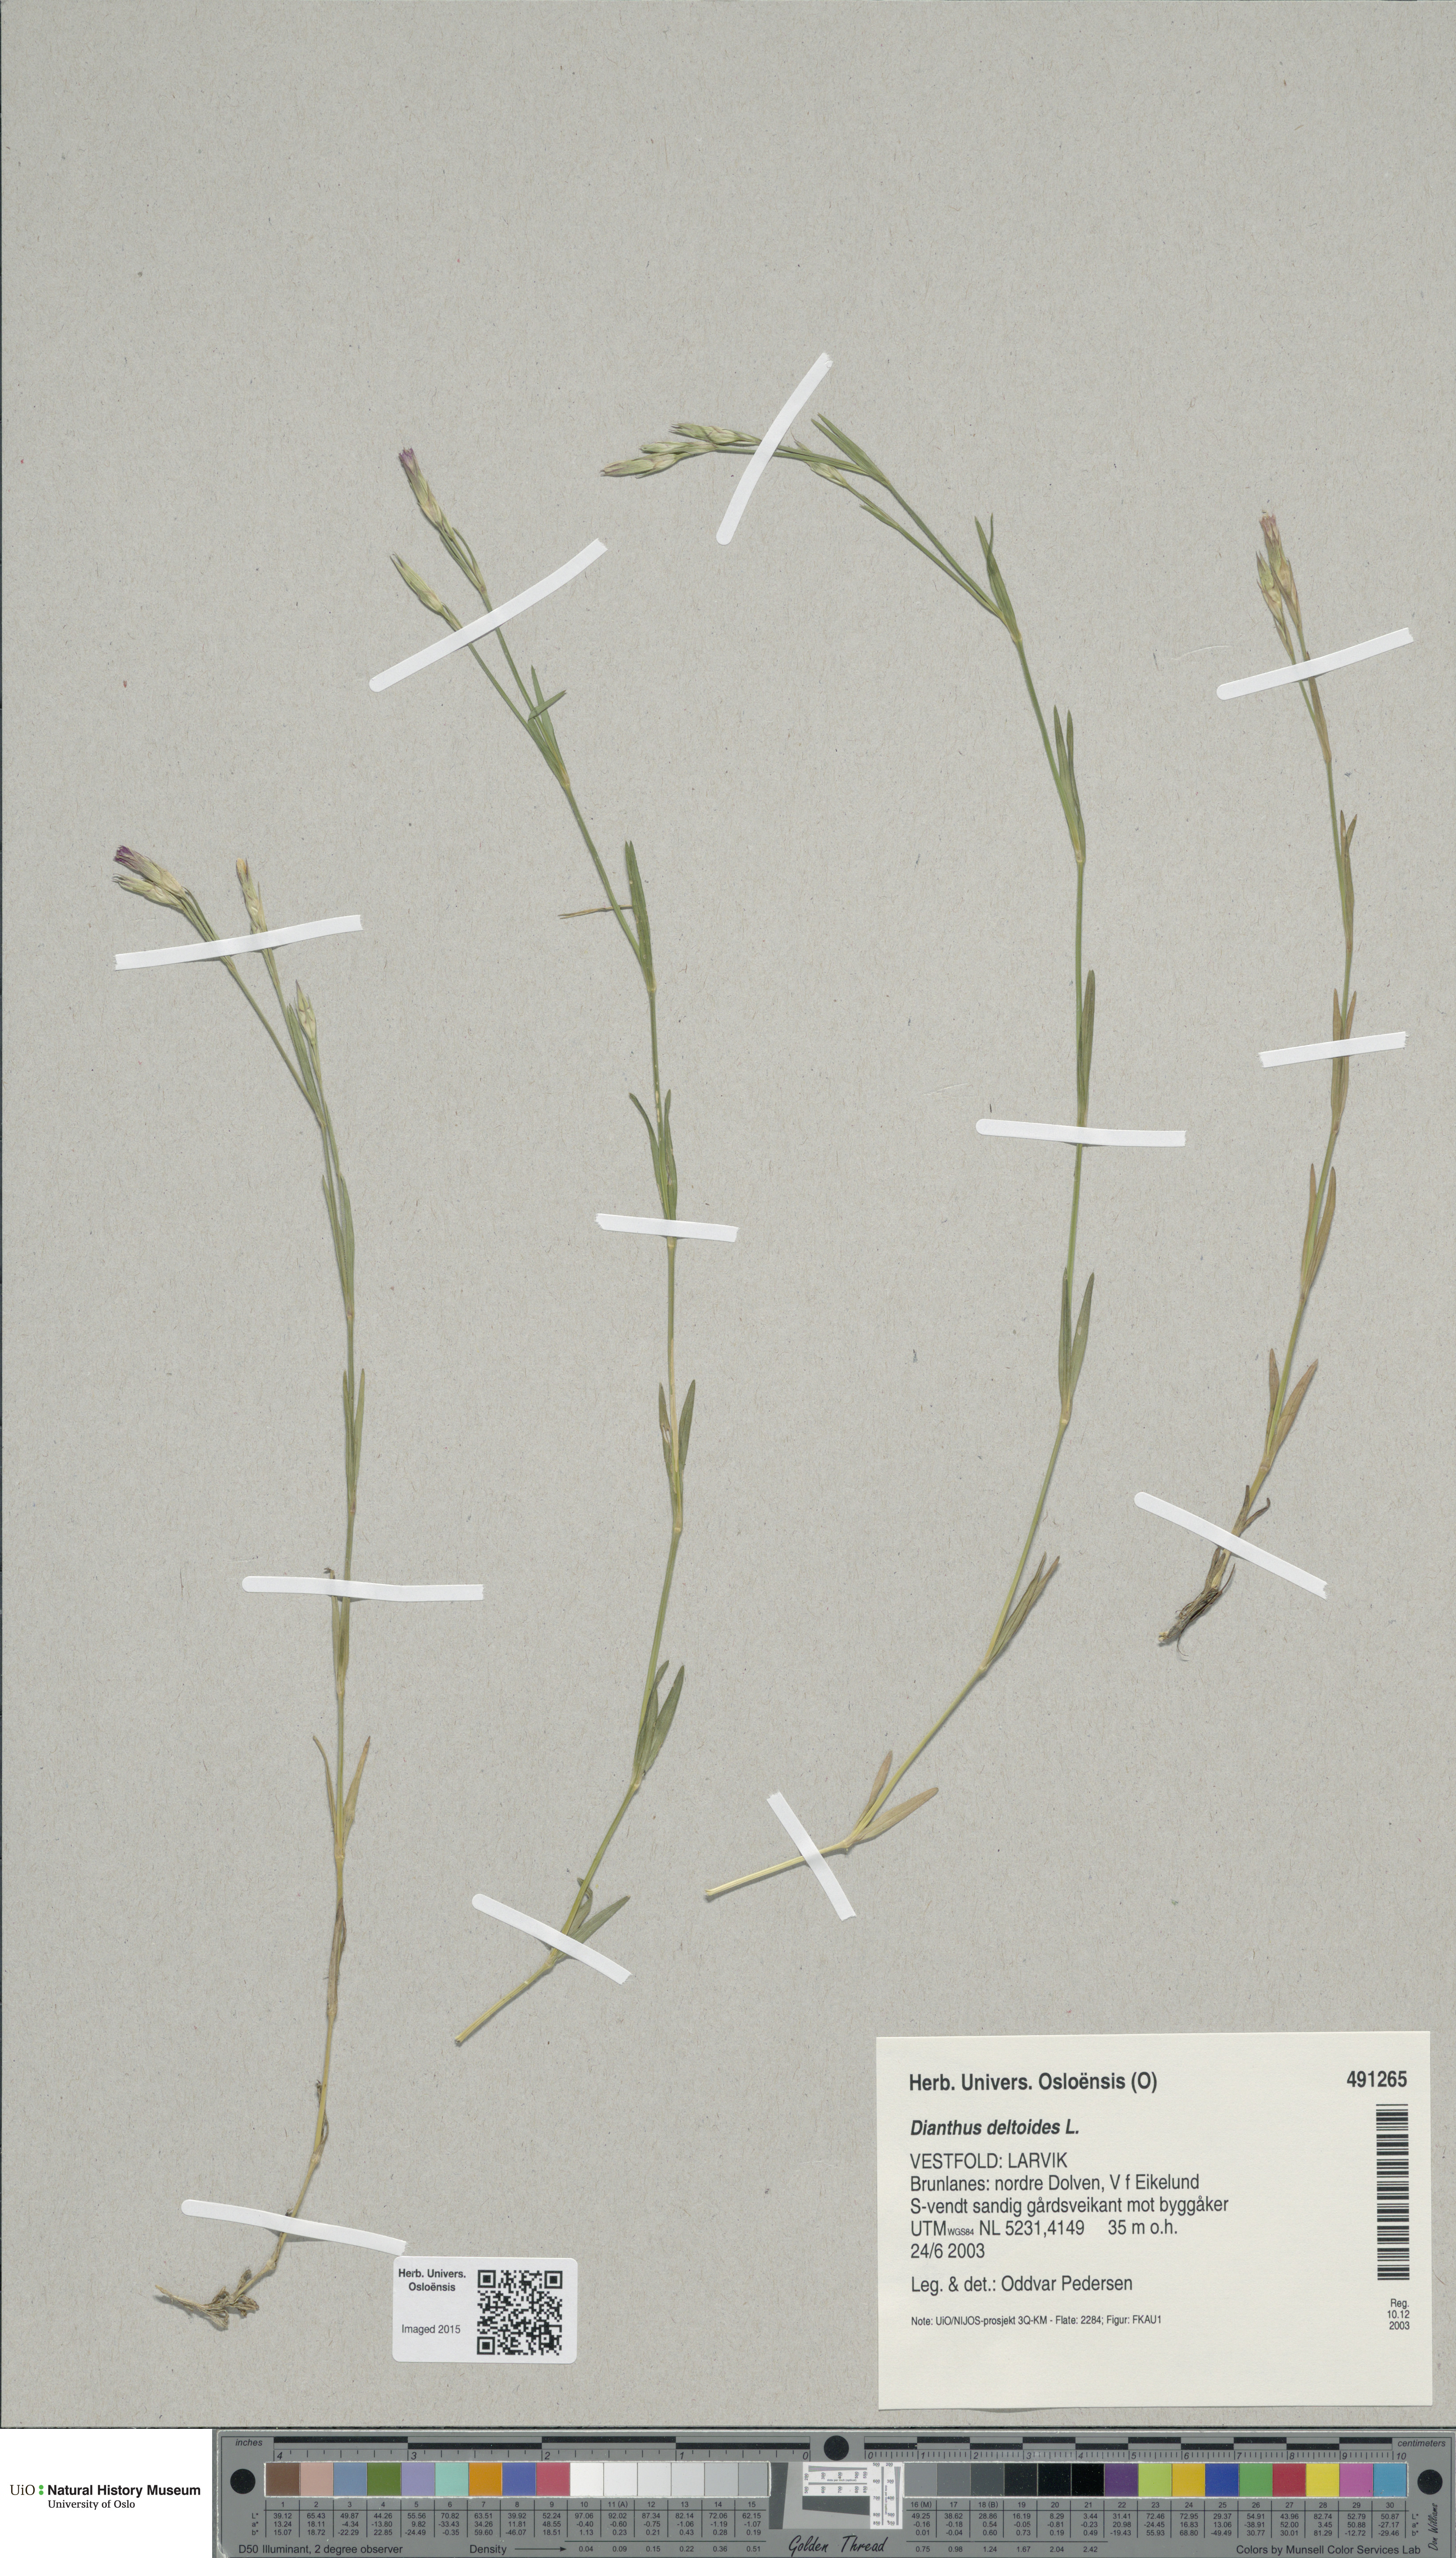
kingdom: Plantae
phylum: Tracheophyta
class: Magnoliopsida
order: Caryophyllales
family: Caryophyllaceae
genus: Dianthus
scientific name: Dianthus deltoides
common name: Maiden pink
